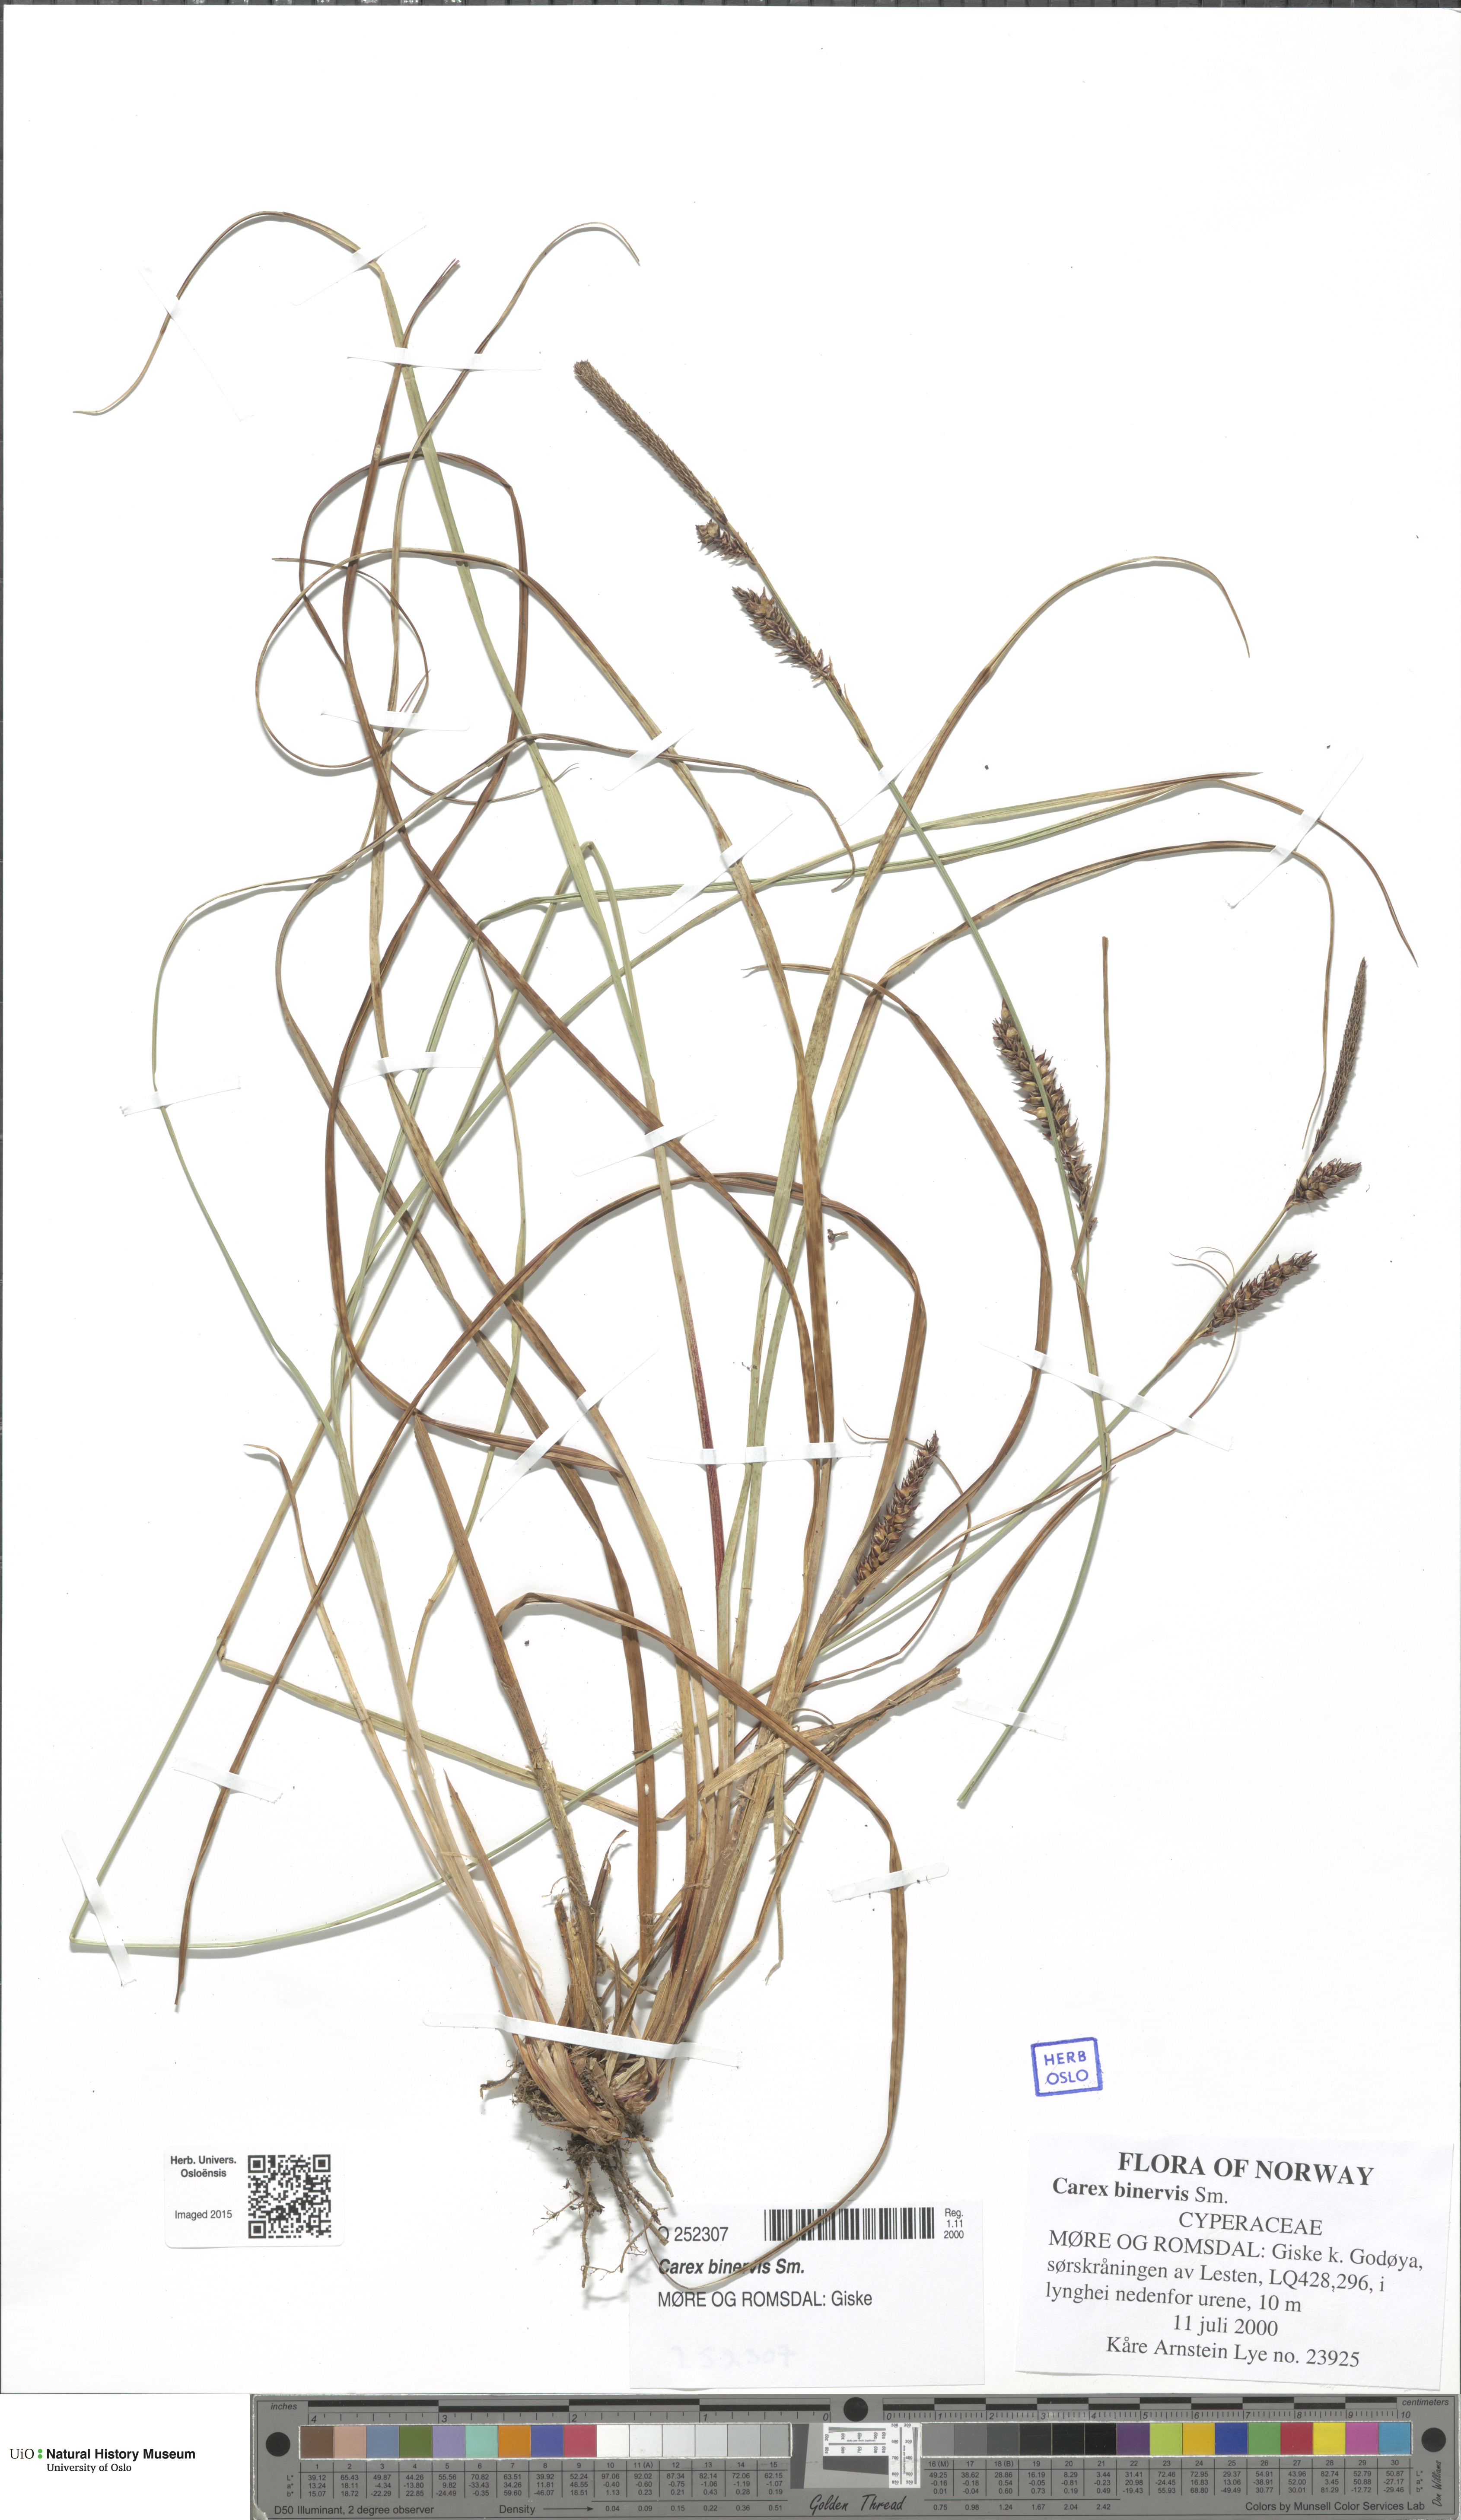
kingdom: Plantae
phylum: Tracheophyta
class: Liliopsida
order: Poales
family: Cyperaceae
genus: Carex
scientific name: Carex binervis
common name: Green-ribbed sedge
